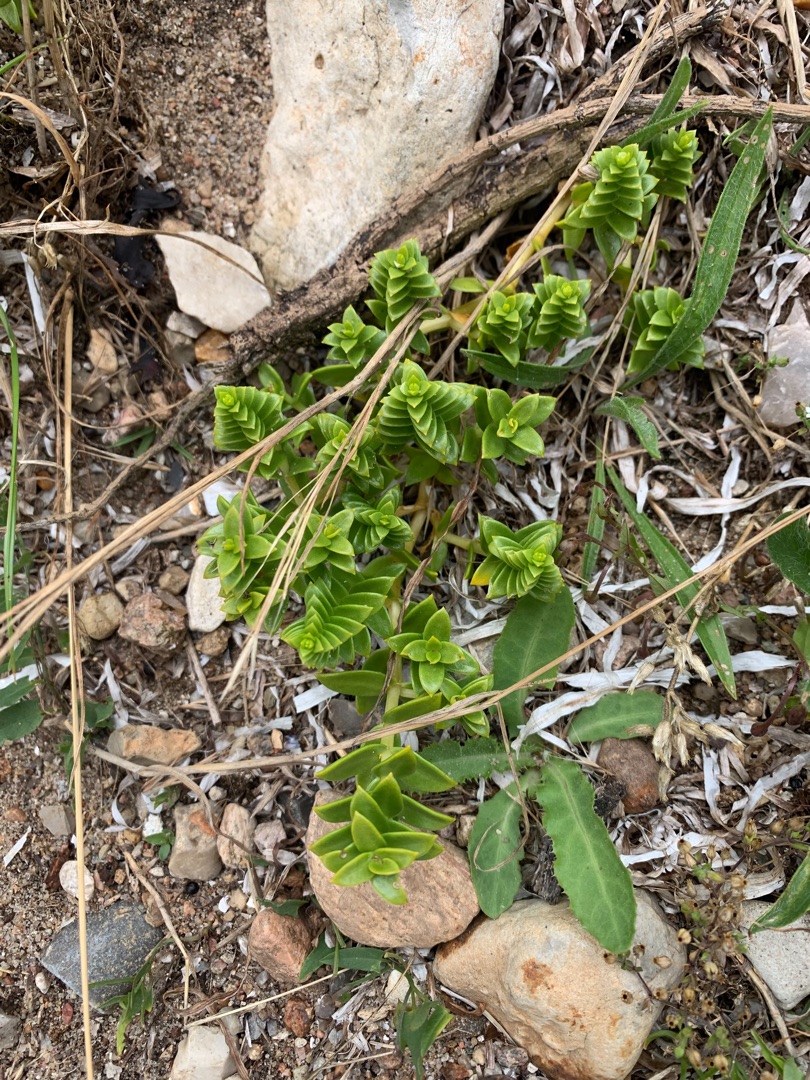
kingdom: Plantae
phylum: Tracheophyta
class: Magnoliopsida
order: Caryophyllales
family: Caryophyllaceae
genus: Honckenya
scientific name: Honckenya peploides
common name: Strandarve
